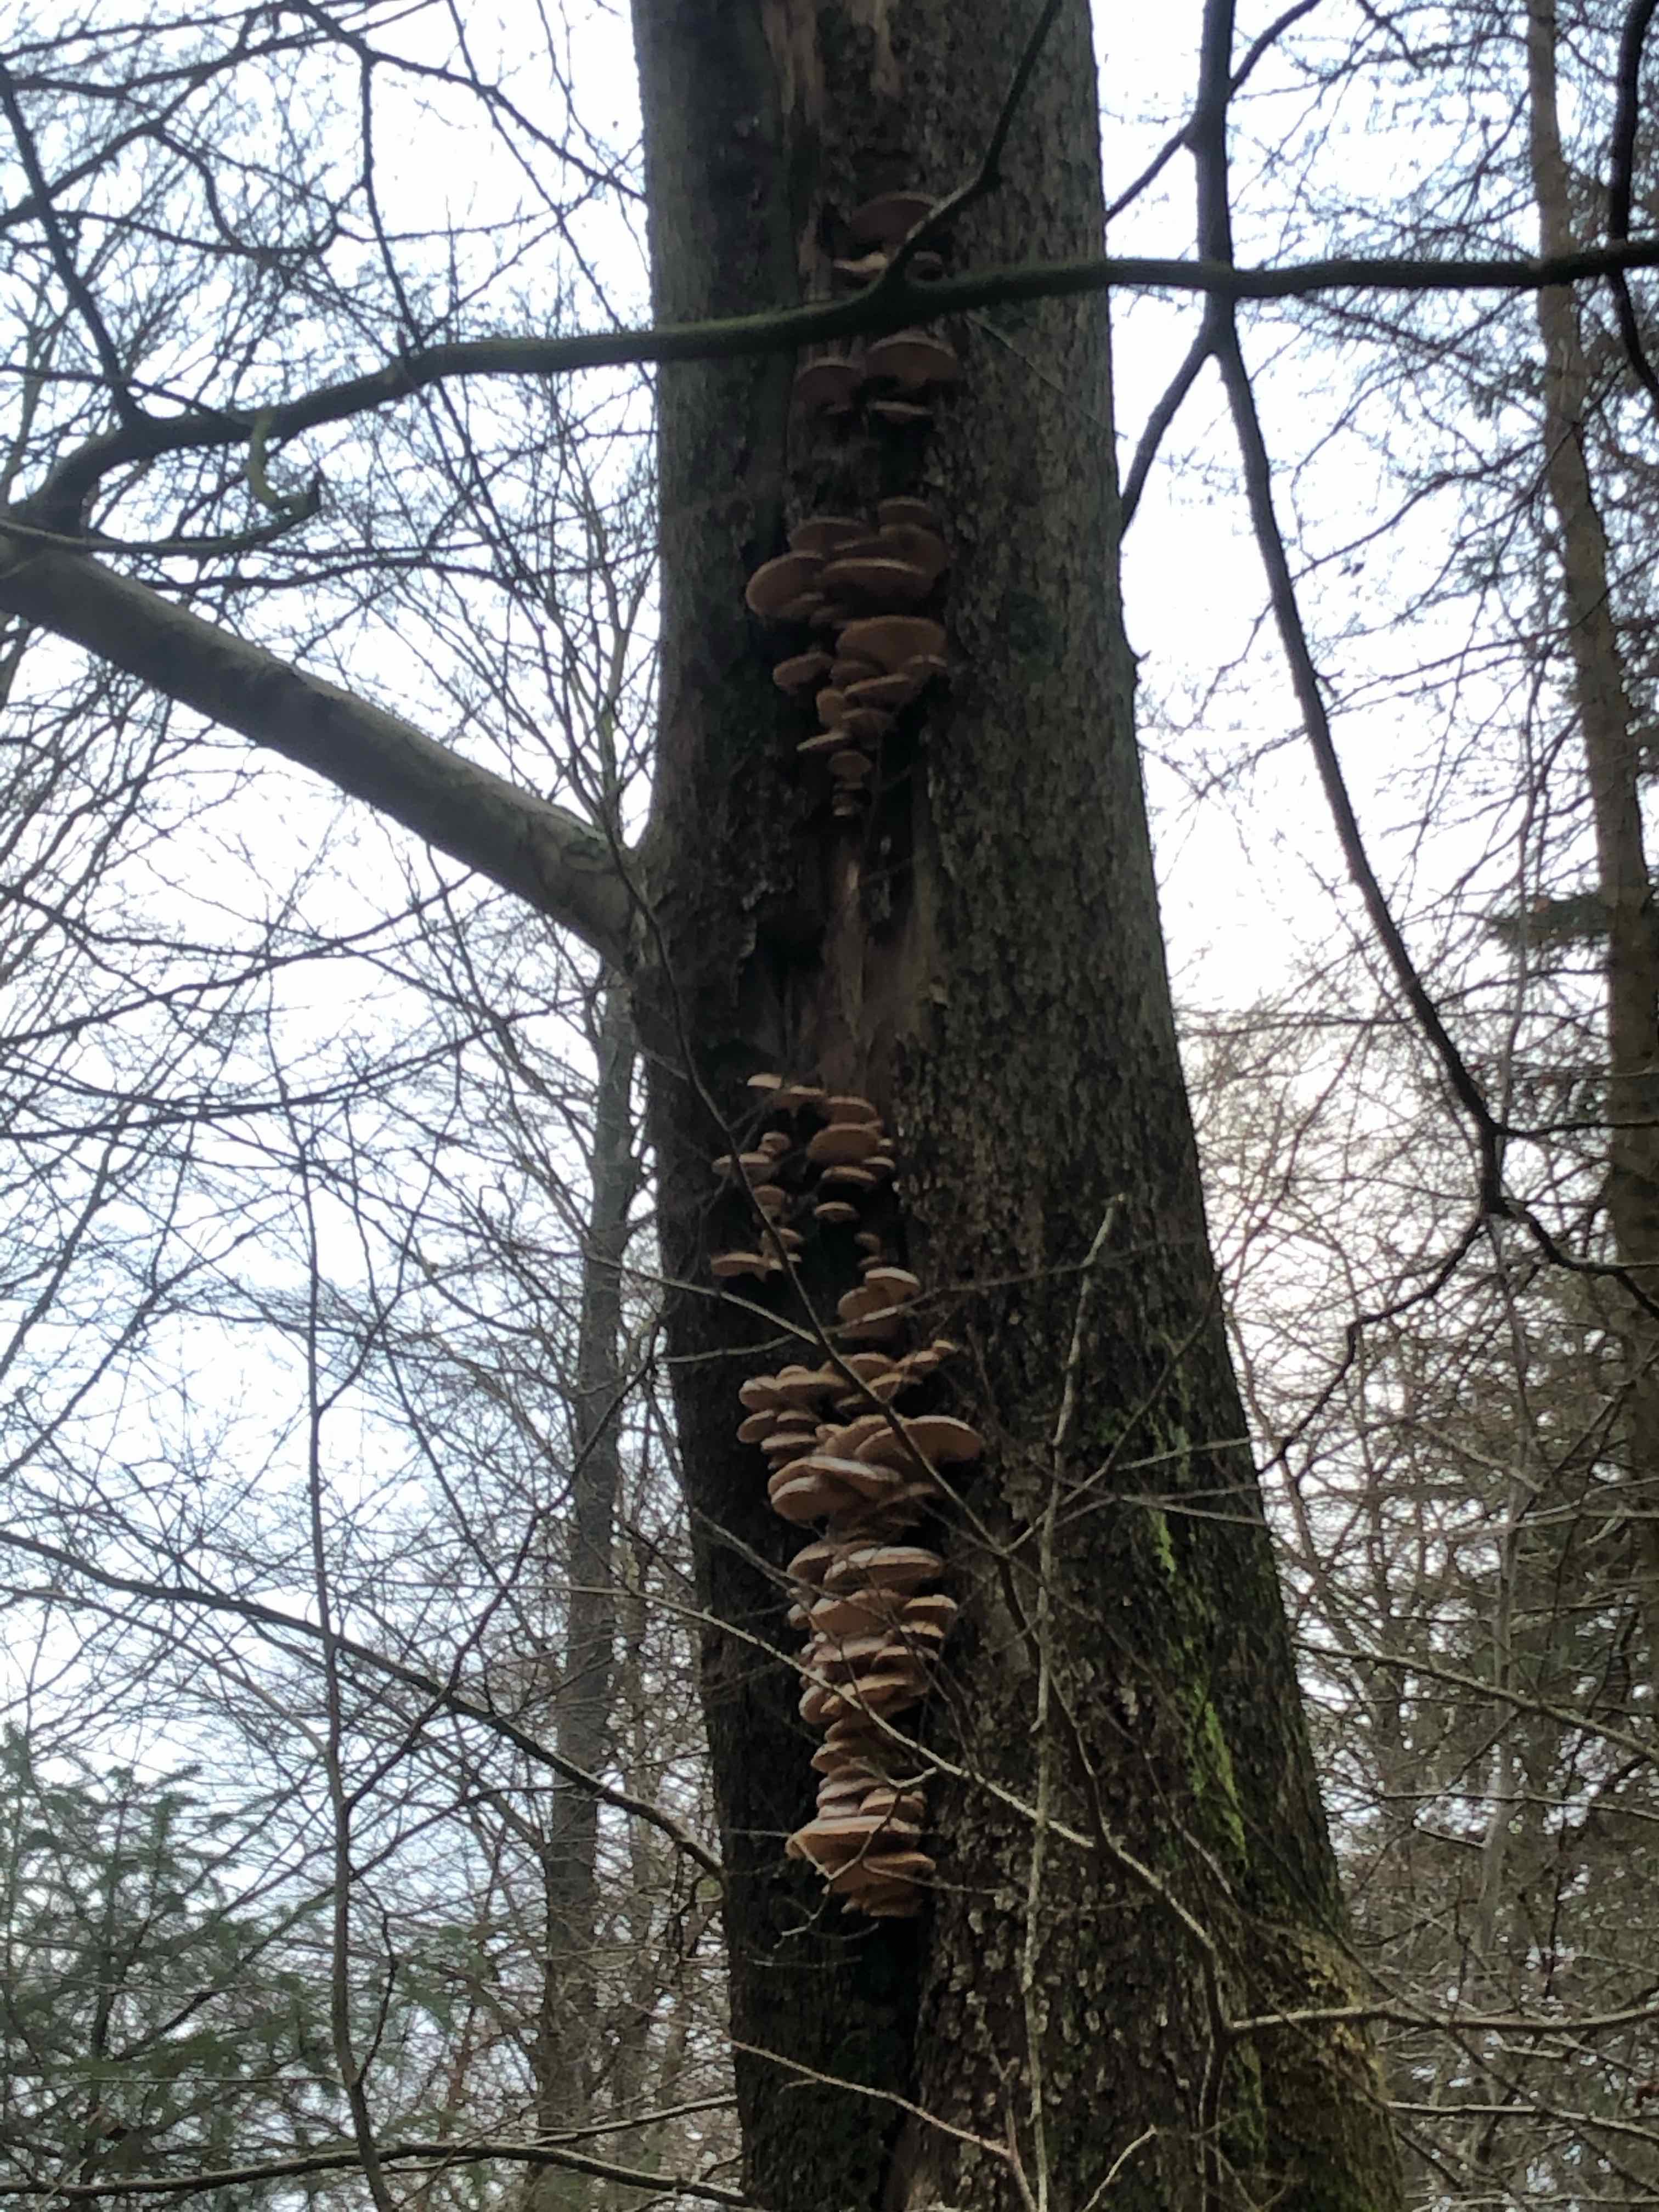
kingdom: Fungi
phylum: Basidiomycota
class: Agaricomycetes
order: Agaricales
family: Pleurotaceae
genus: Pleurotus
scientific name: Pleurotus ostreatus
